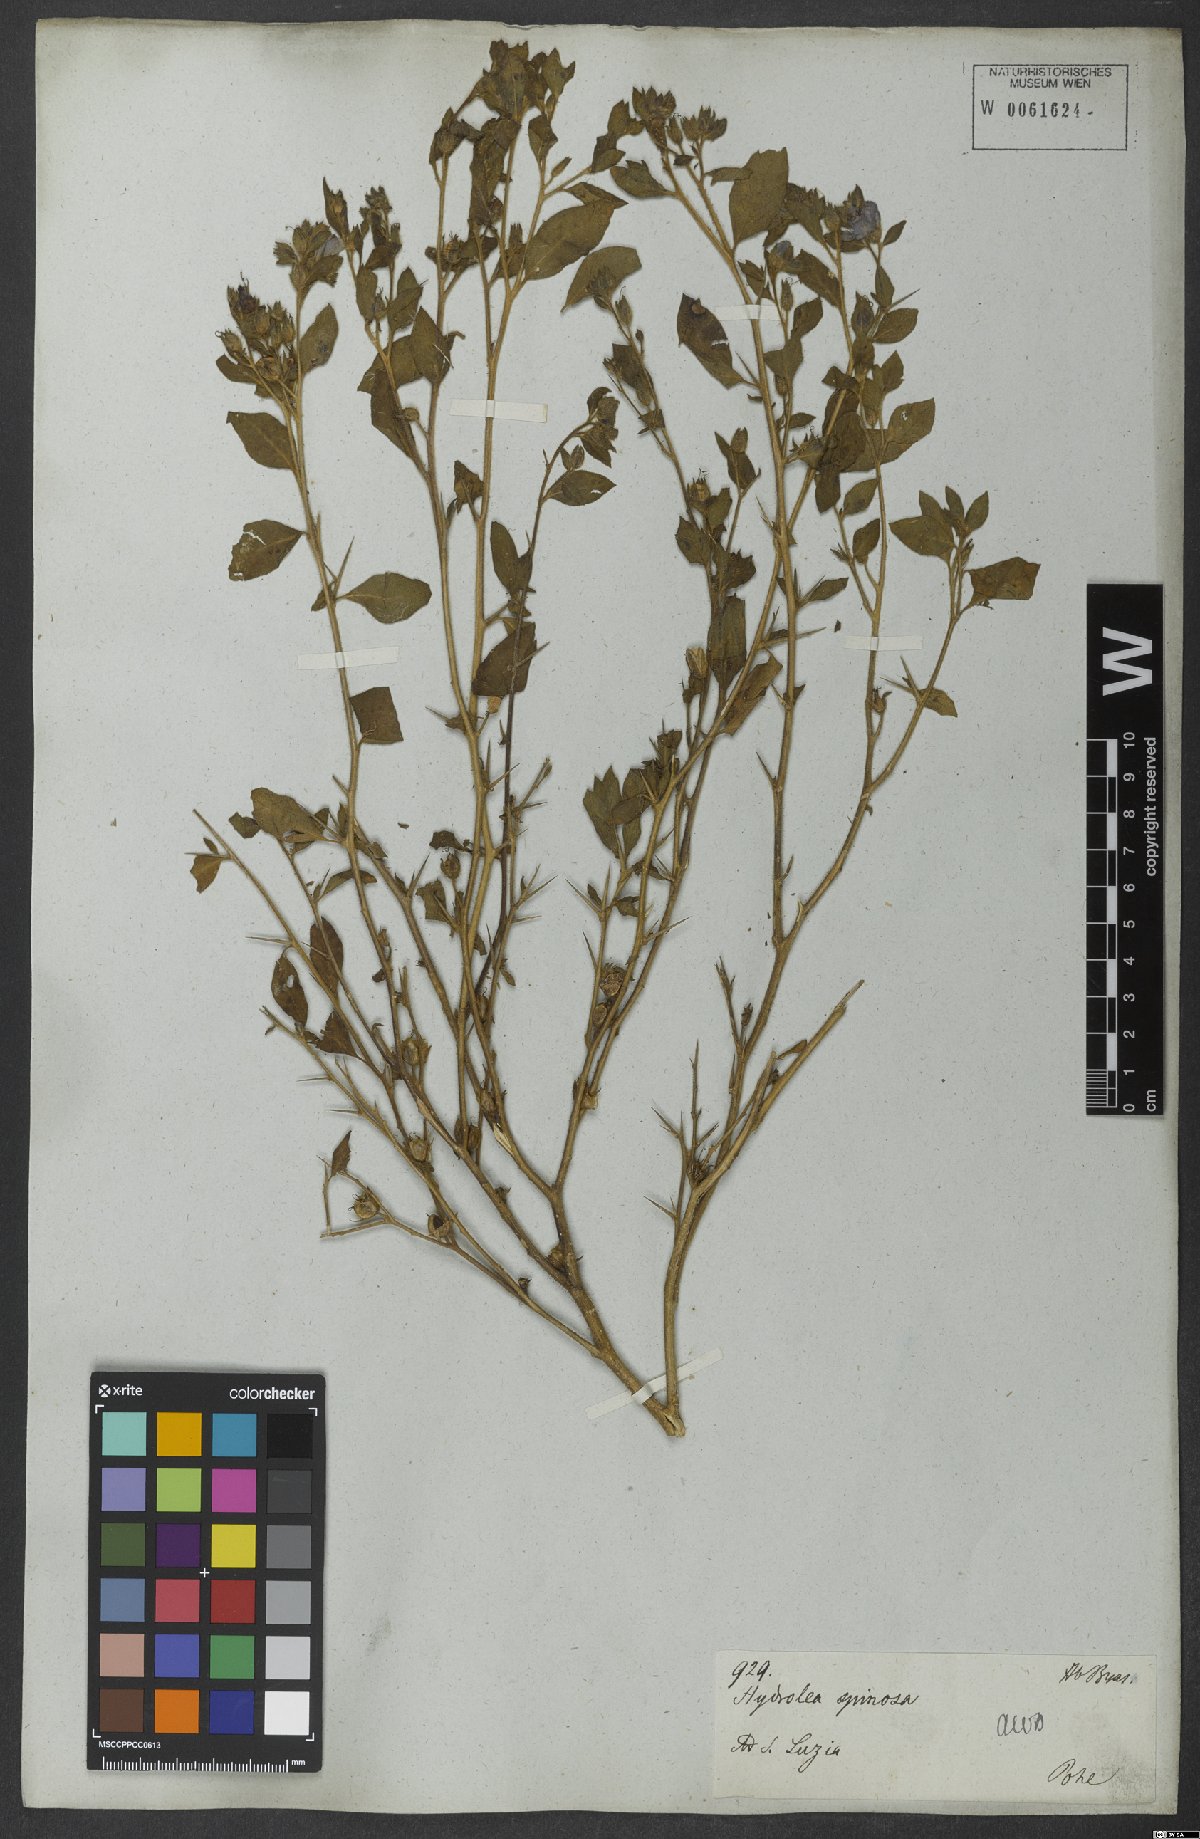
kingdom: Plantae
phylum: Tracheophyta
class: Magnoliopsida
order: Solanales
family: Hydroleaceae
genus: Hydrolea
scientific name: Hydrolea spinosa
